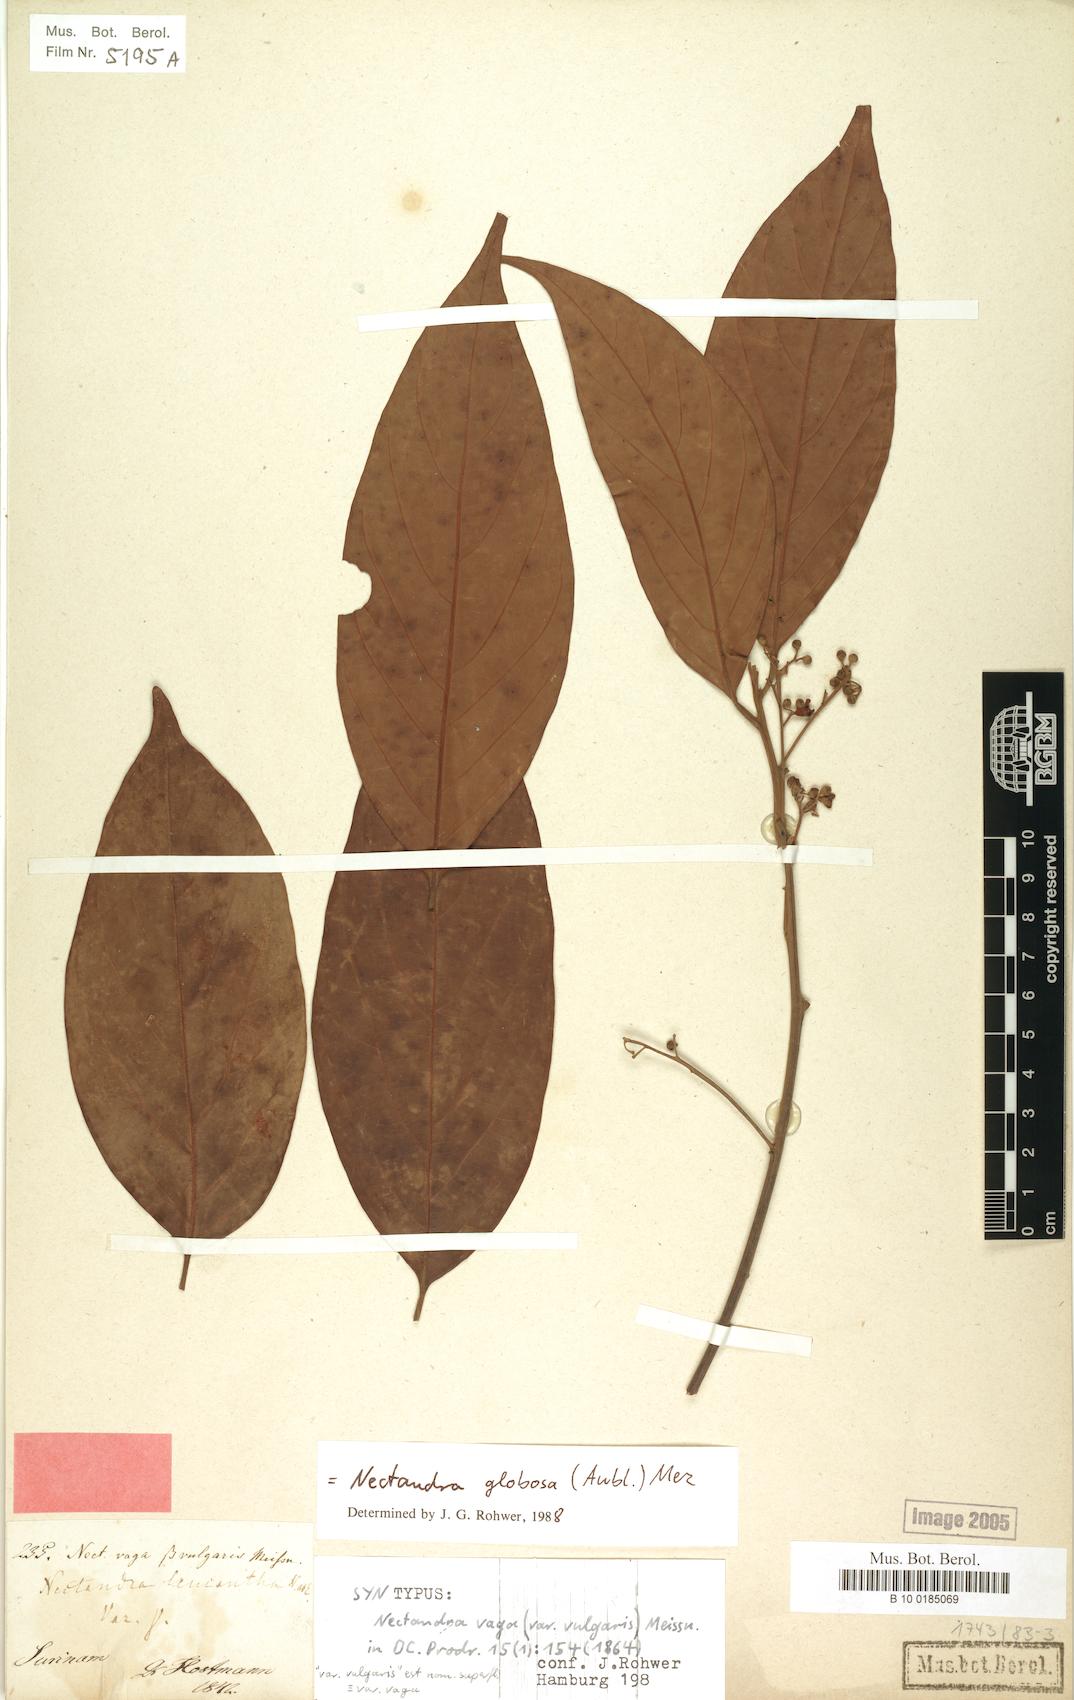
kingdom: Plantae
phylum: Tracheophyta
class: Magnoliopsida
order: Laurales
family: Lauraceae
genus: Nectandra
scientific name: Nectandra globosa
